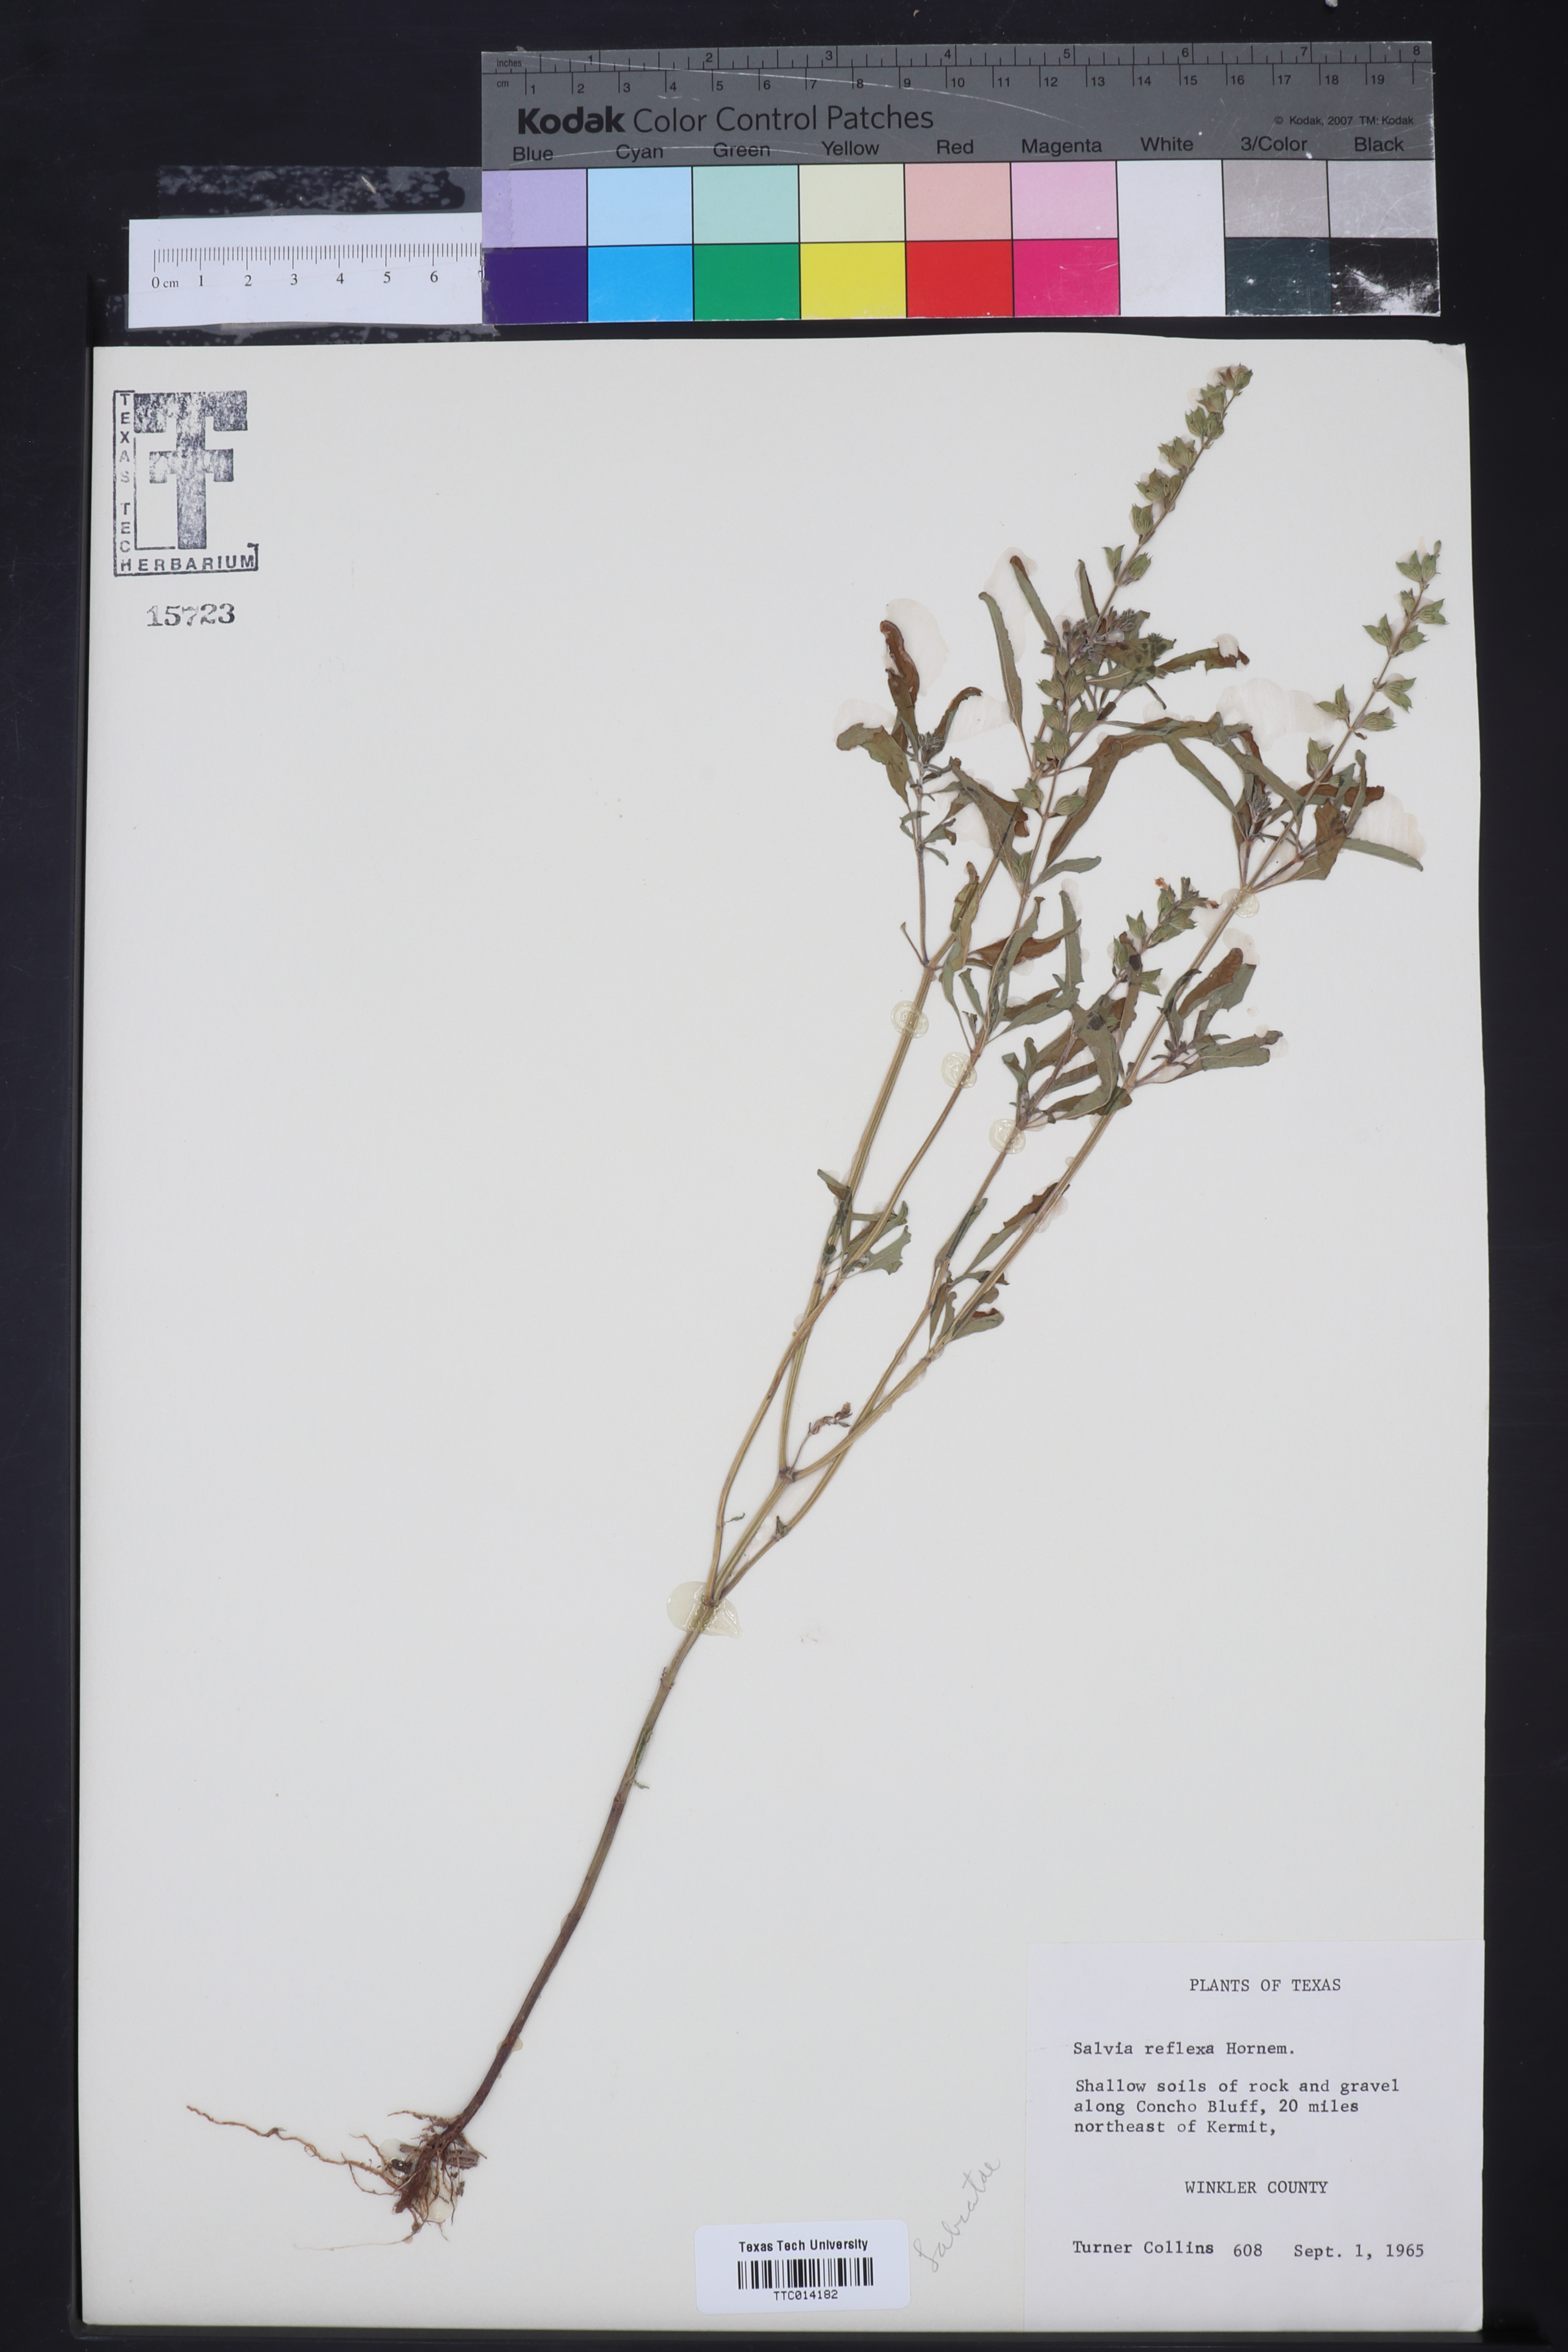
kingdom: Plantae
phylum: Tracheophyta
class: Magnoliopsida
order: Lamiales
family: Lamiaceae
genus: Salvia
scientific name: Salvia reflexa
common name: Mintweed
